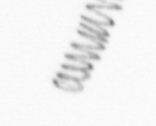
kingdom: Chromista
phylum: Ochrophyta
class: Bacillariophyceae
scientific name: Bacillariophyceae
